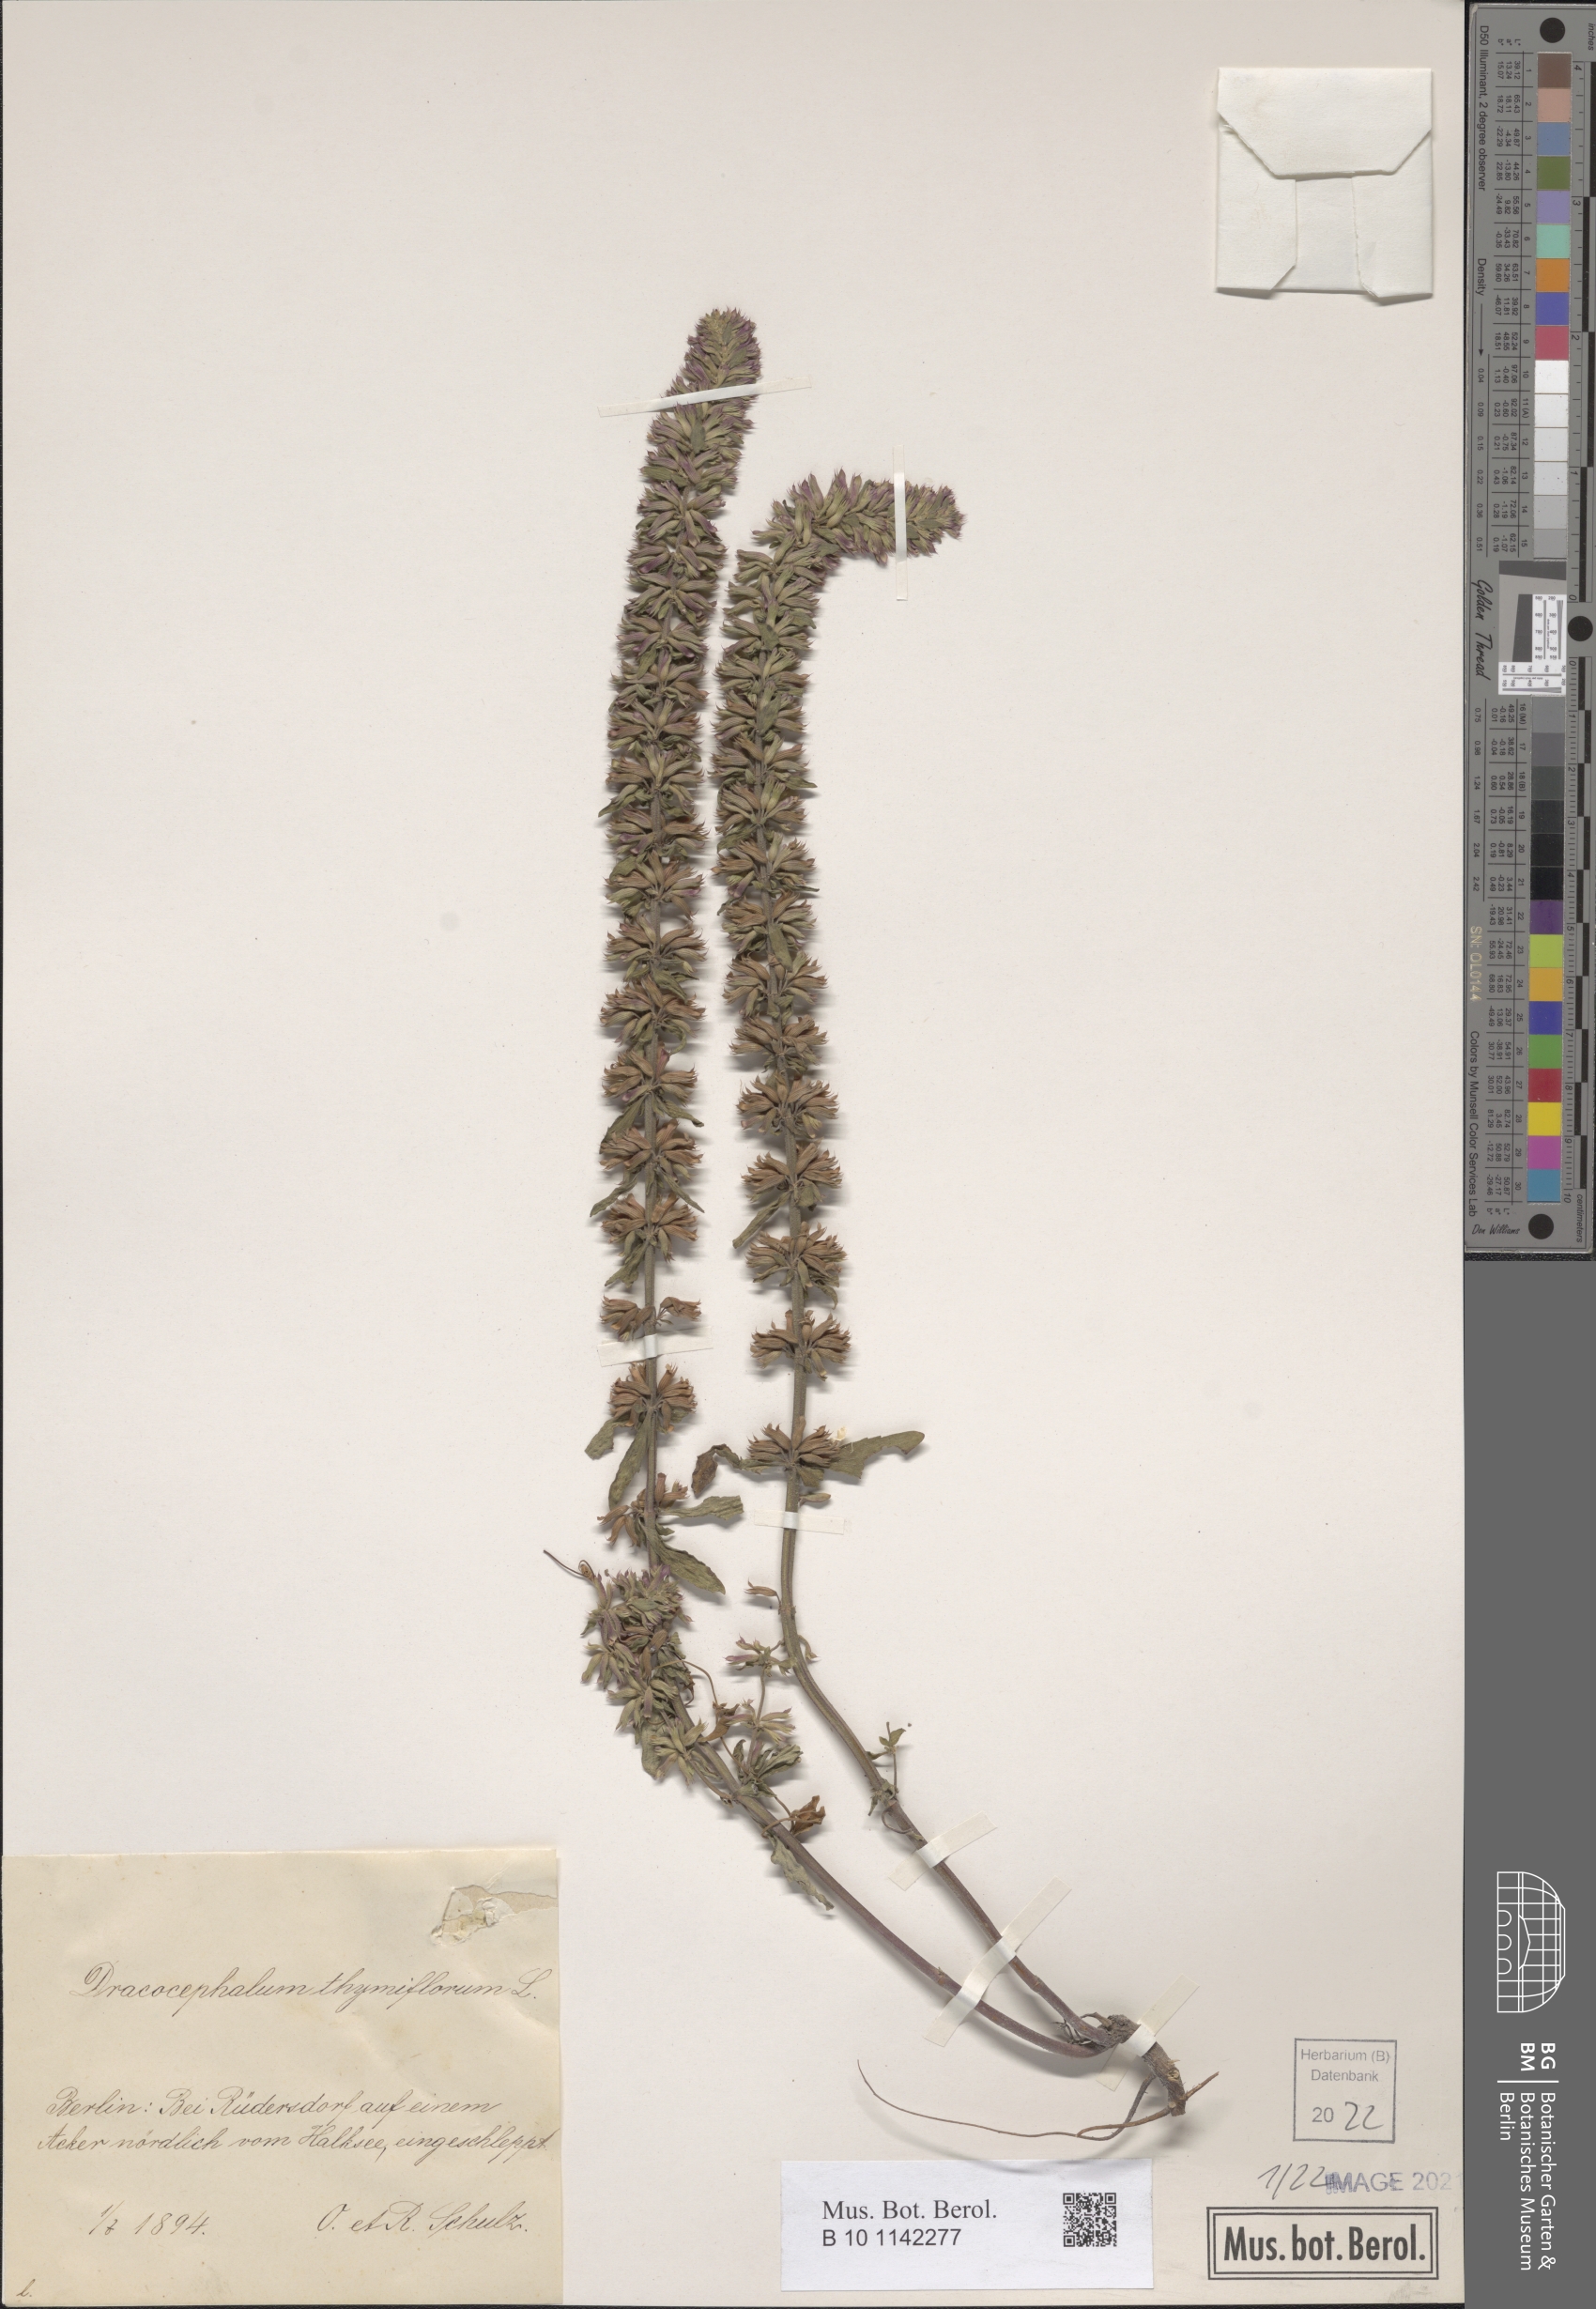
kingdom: Plantae
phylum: Tracheophyta
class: Magnoliopsida
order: Lamiales
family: Lamiaceae
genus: Dracocephalum
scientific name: Dracocephalum thymiflorum
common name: Thymeleaf dragonhead
